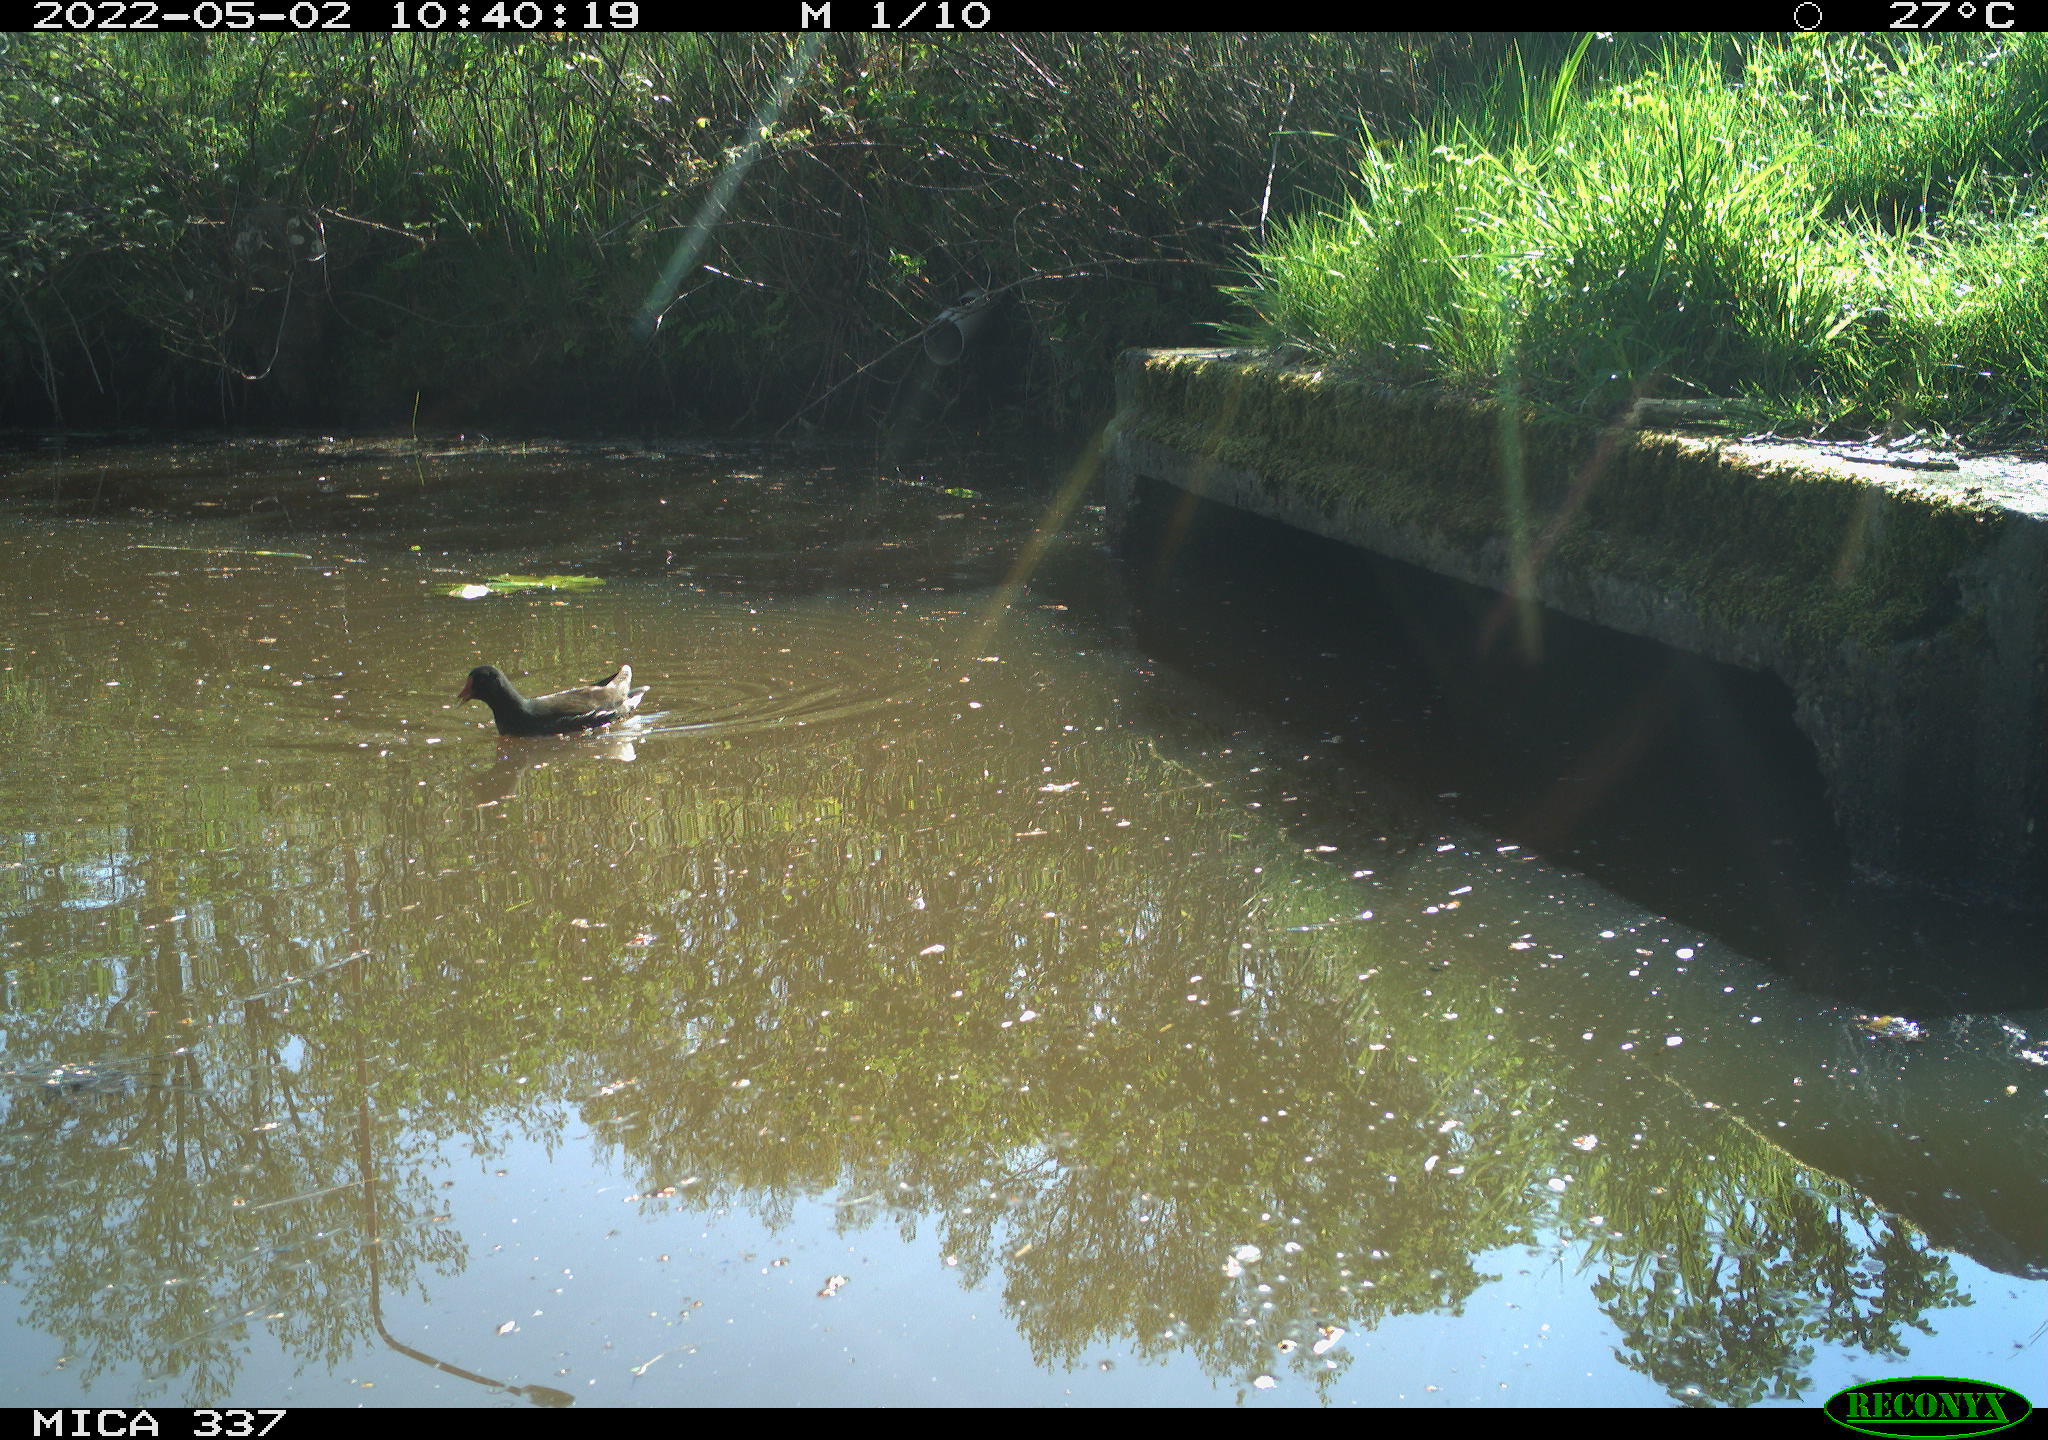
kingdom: Animalia
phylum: Chordata
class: Aves
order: Gruiformes
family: Rallidae
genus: Gallinula
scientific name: Gallinula chloropus
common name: Common moorhen
